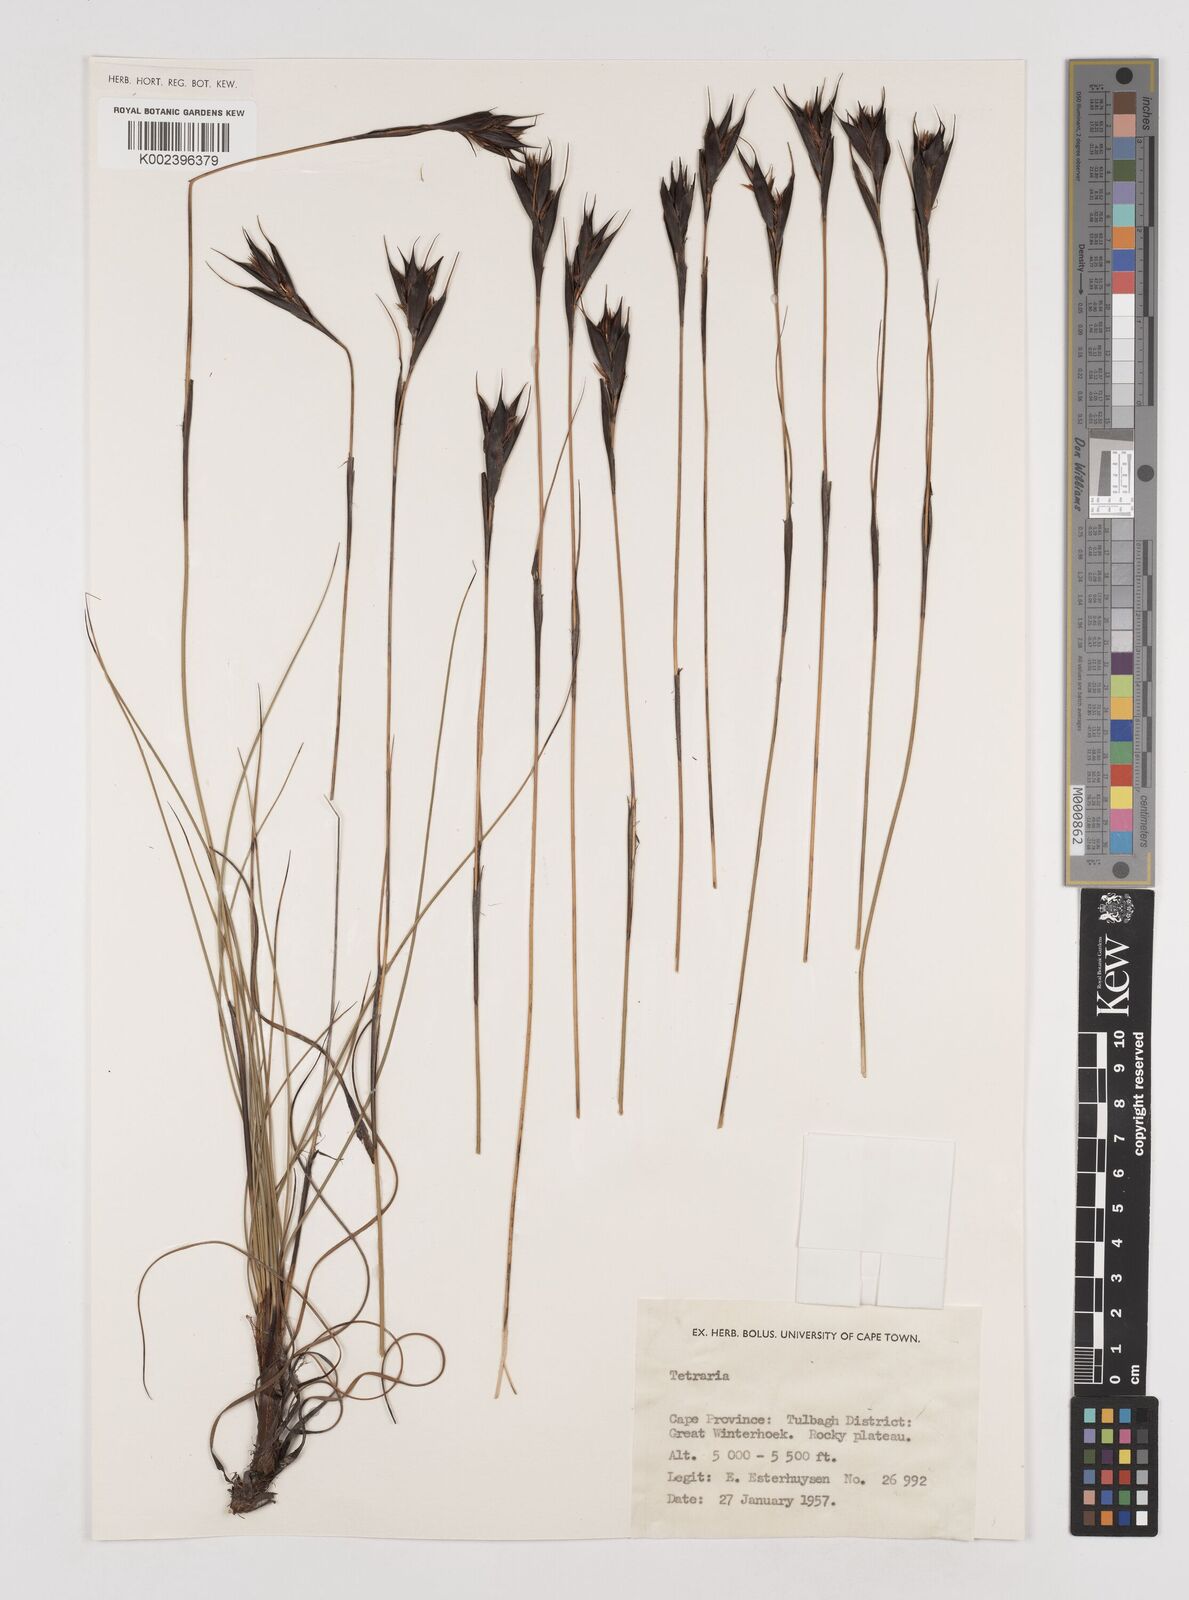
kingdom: Plantae
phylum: Tracheophyta
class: Liliopsida
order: Poales
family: Cyperaceae
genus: Tetraria
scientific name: Tetraria wallichiana
